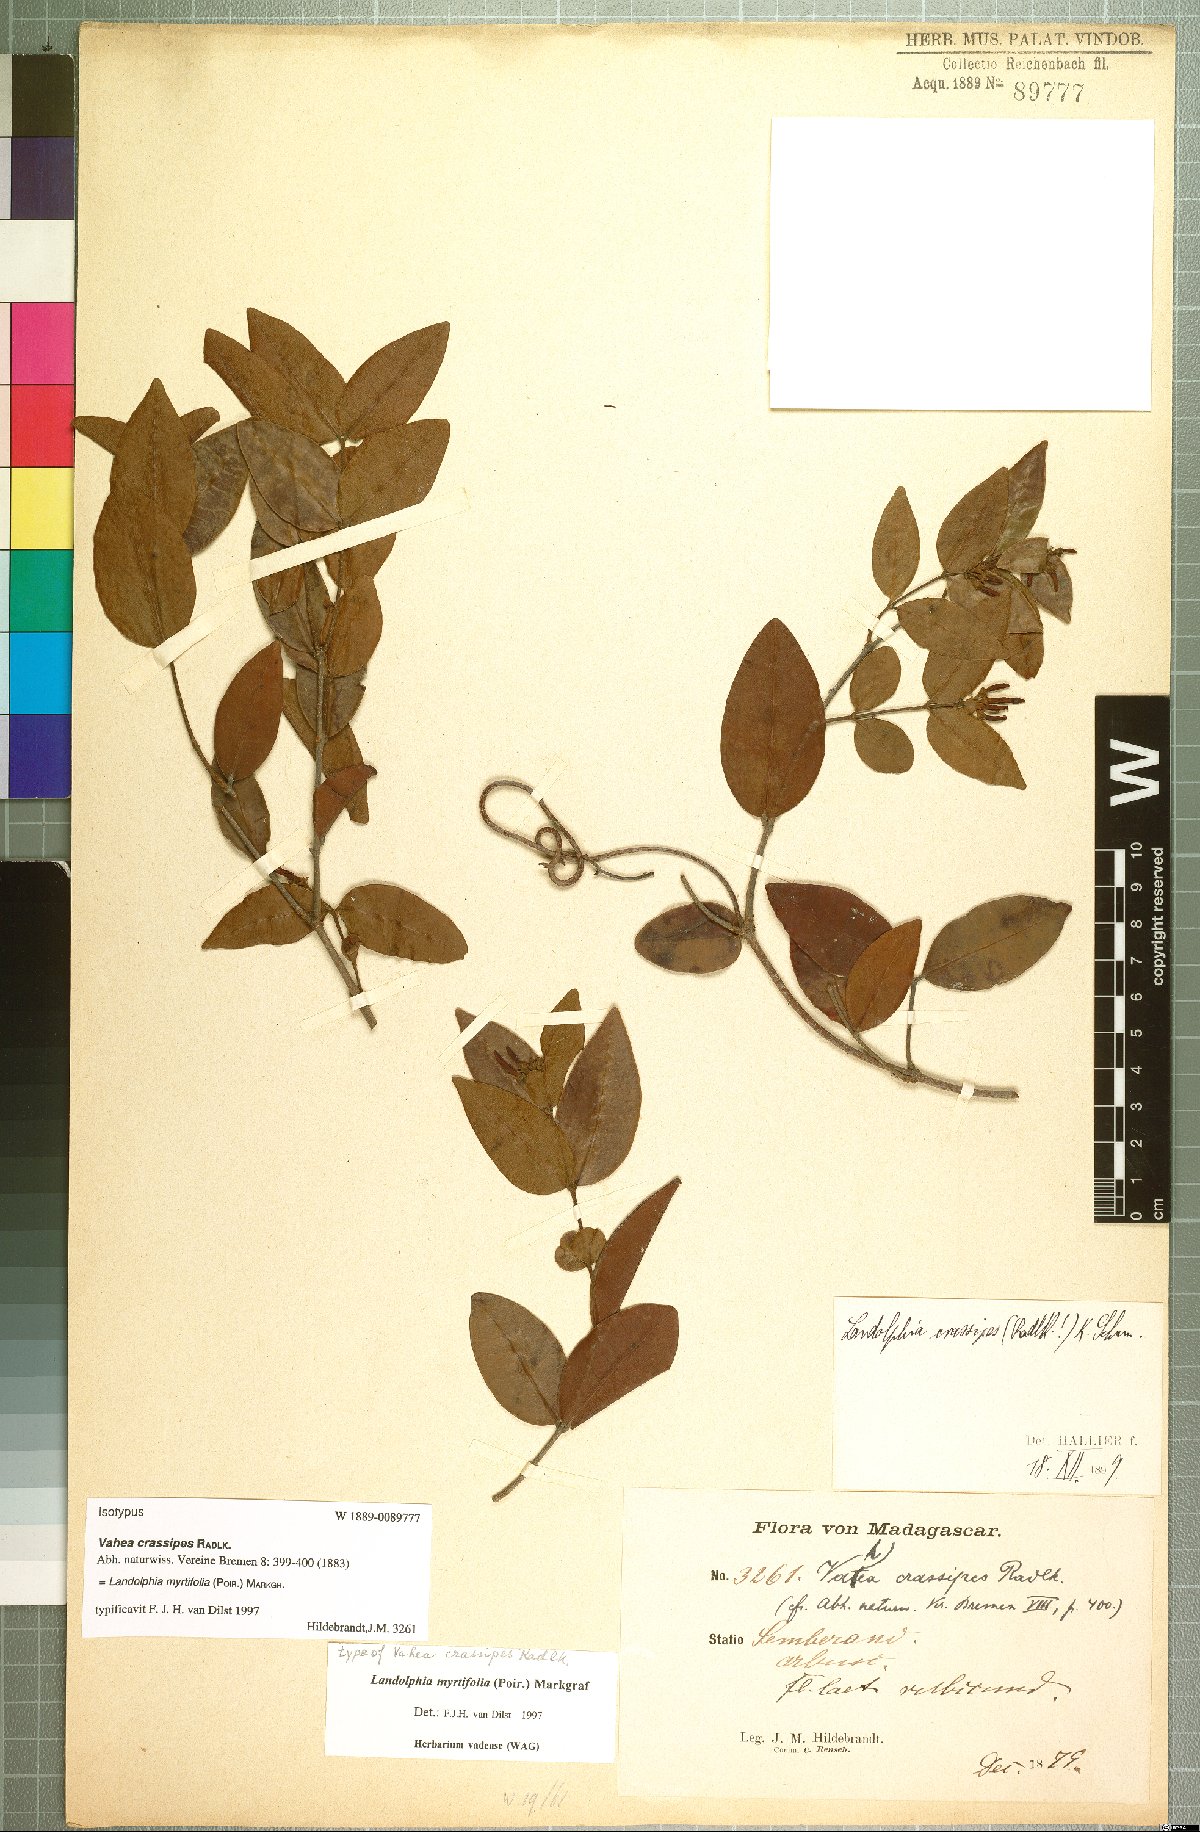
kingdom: Plantae
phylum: Tracheophyta
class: Magnoliopsida
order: Gentianales
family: Apocynaceae
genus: Landolphia
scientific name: Landolphia myrtifolia
